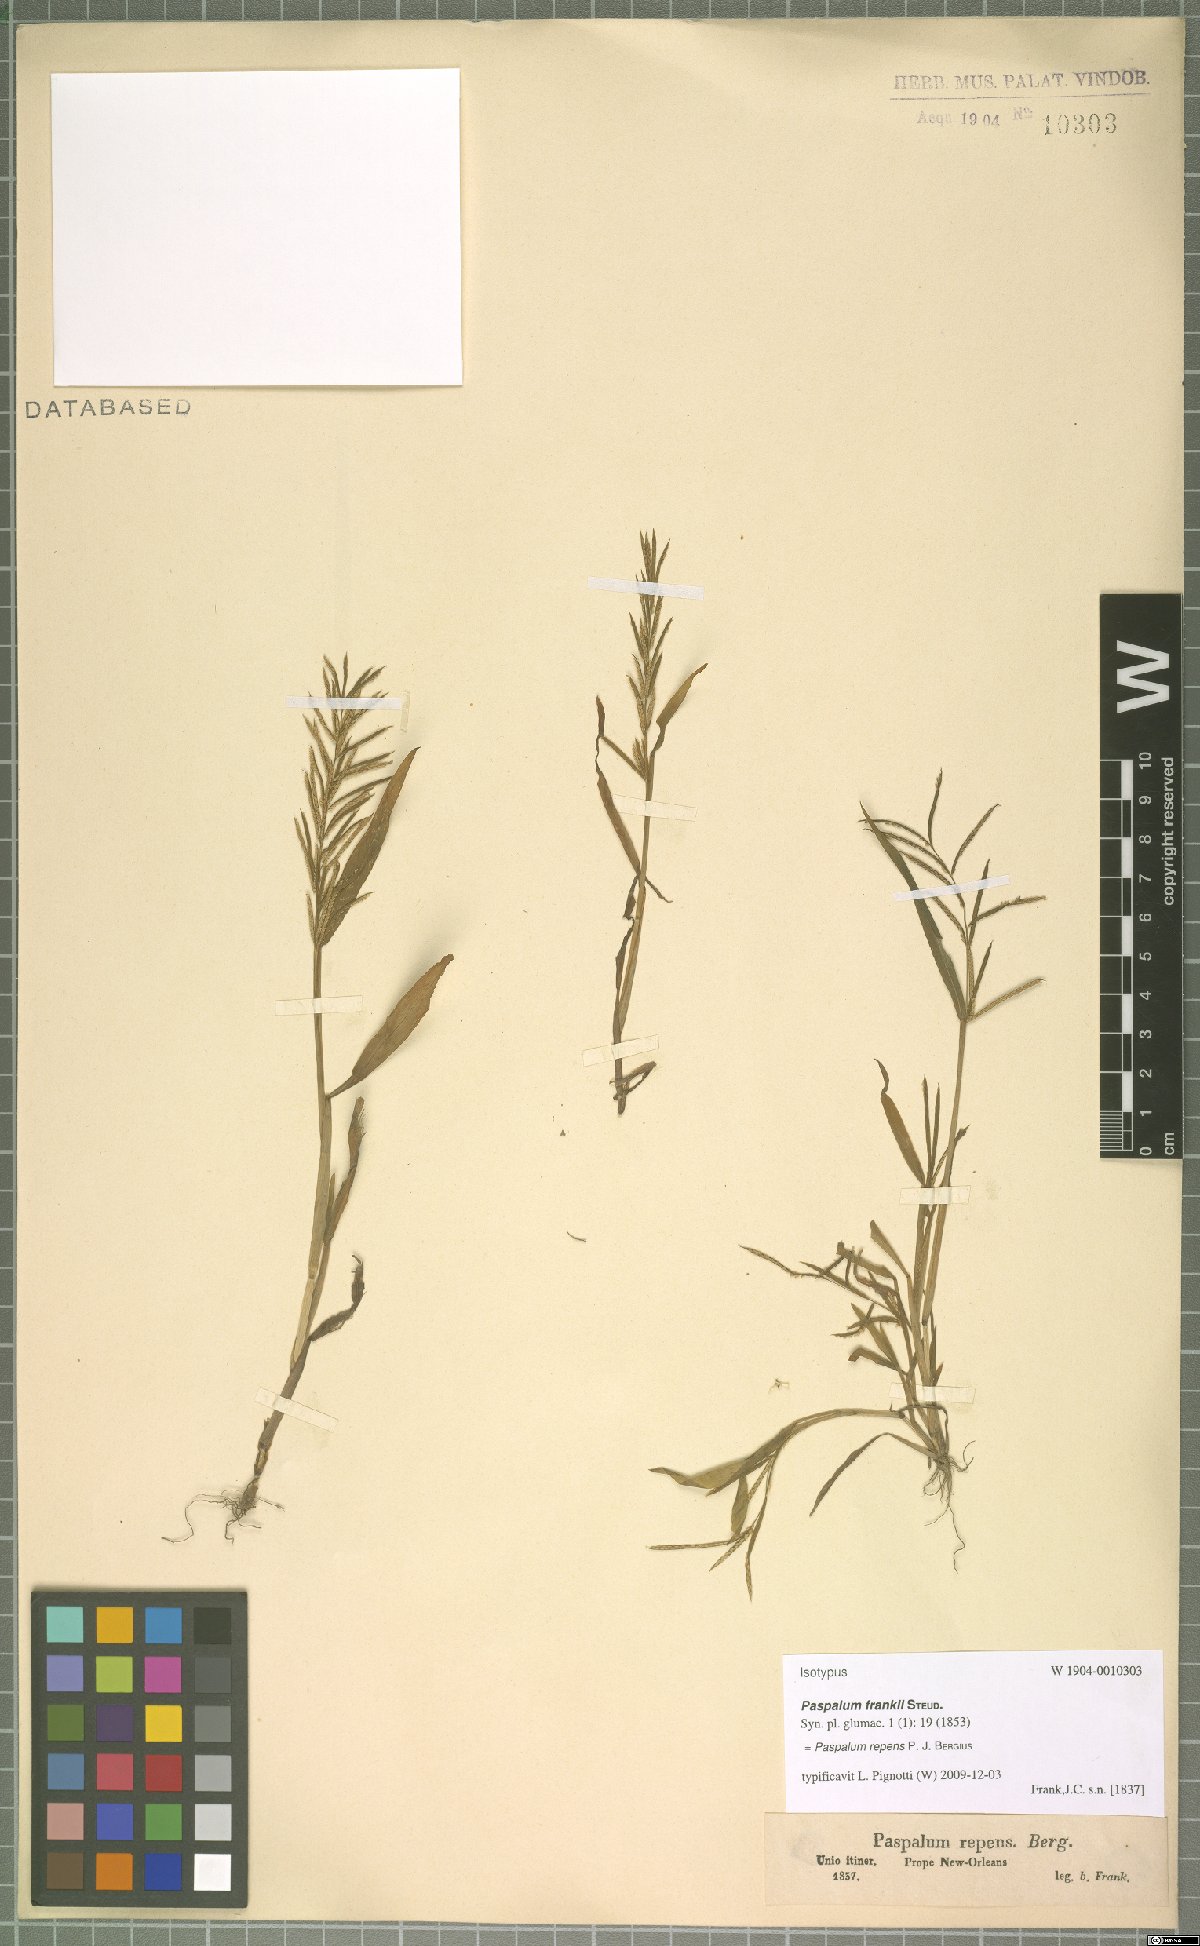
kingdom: Plantae
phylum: Tracheophyta
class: Liliopsida
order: Poales
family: Poaceae
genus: Paspalum
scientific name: Paspalum repens
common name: Water paspalum
